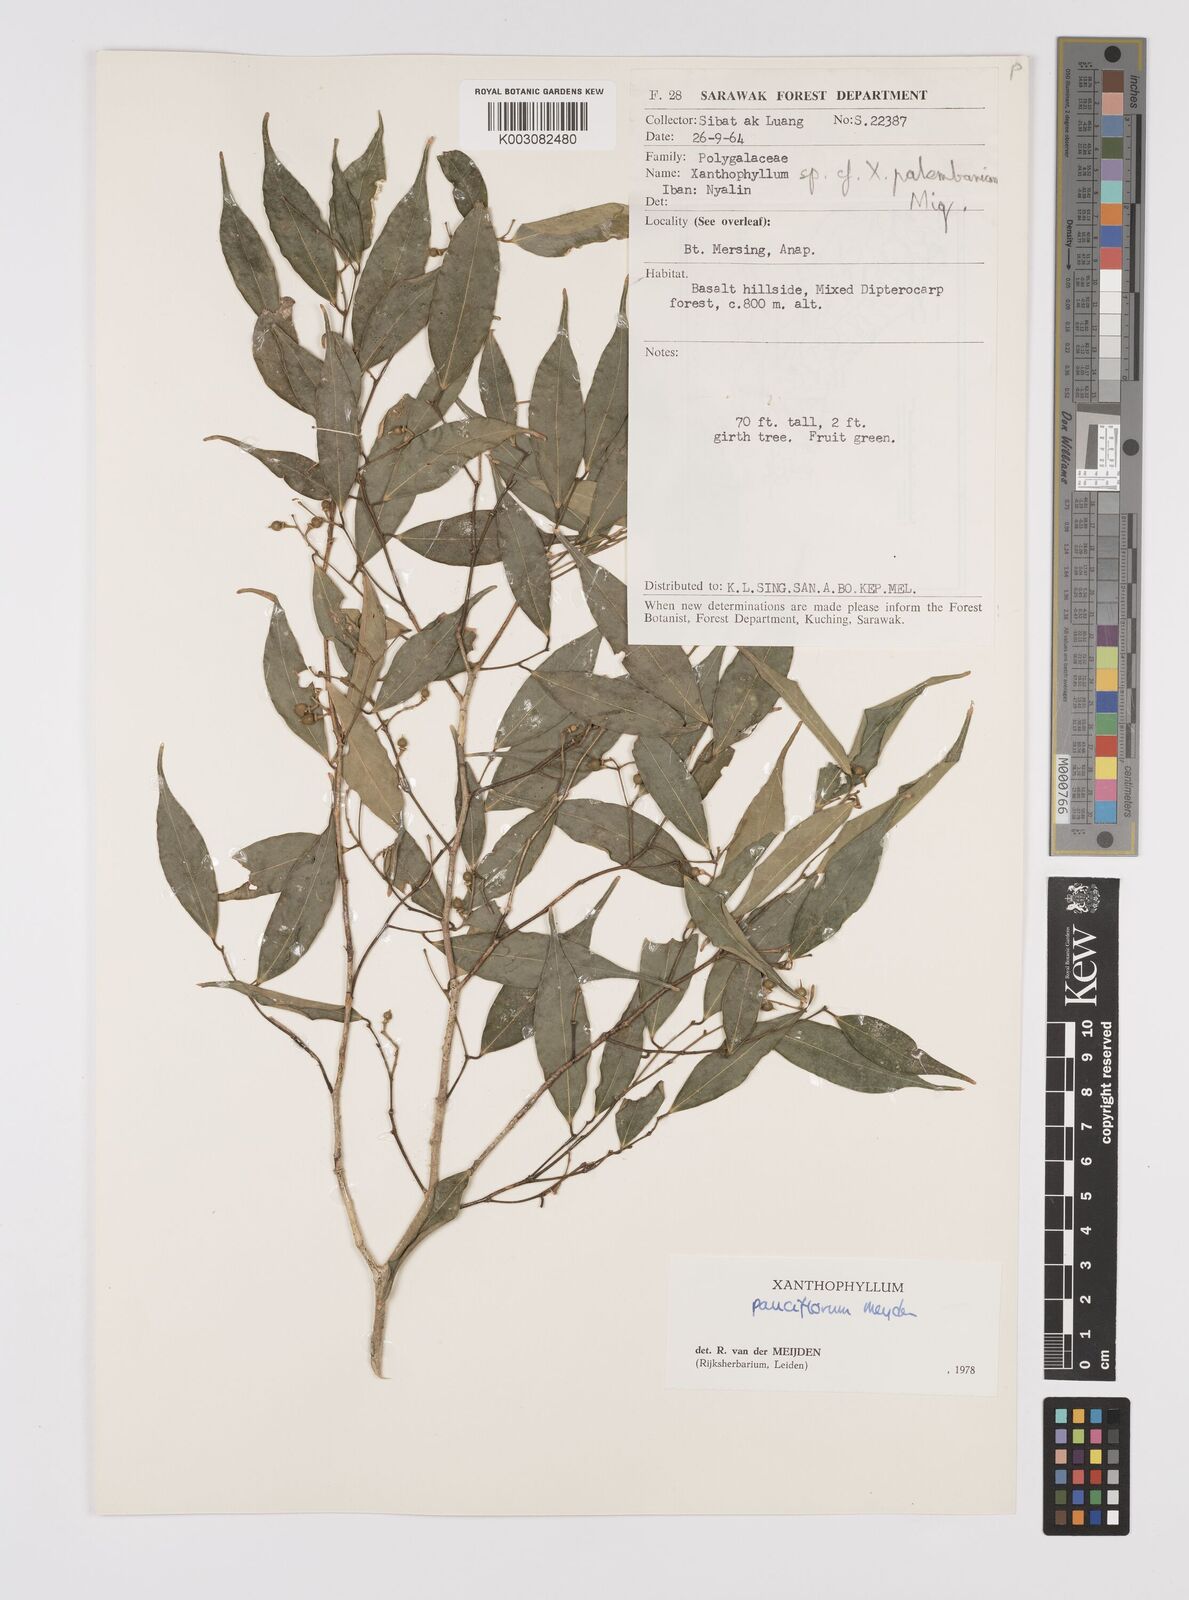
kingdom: Plantae
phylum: Tracheophyta
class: Magnoliopsida
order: Fabales
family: Polygalaceae
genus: Xanthophyllum
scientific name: Xanthophyllum pauciflorum
